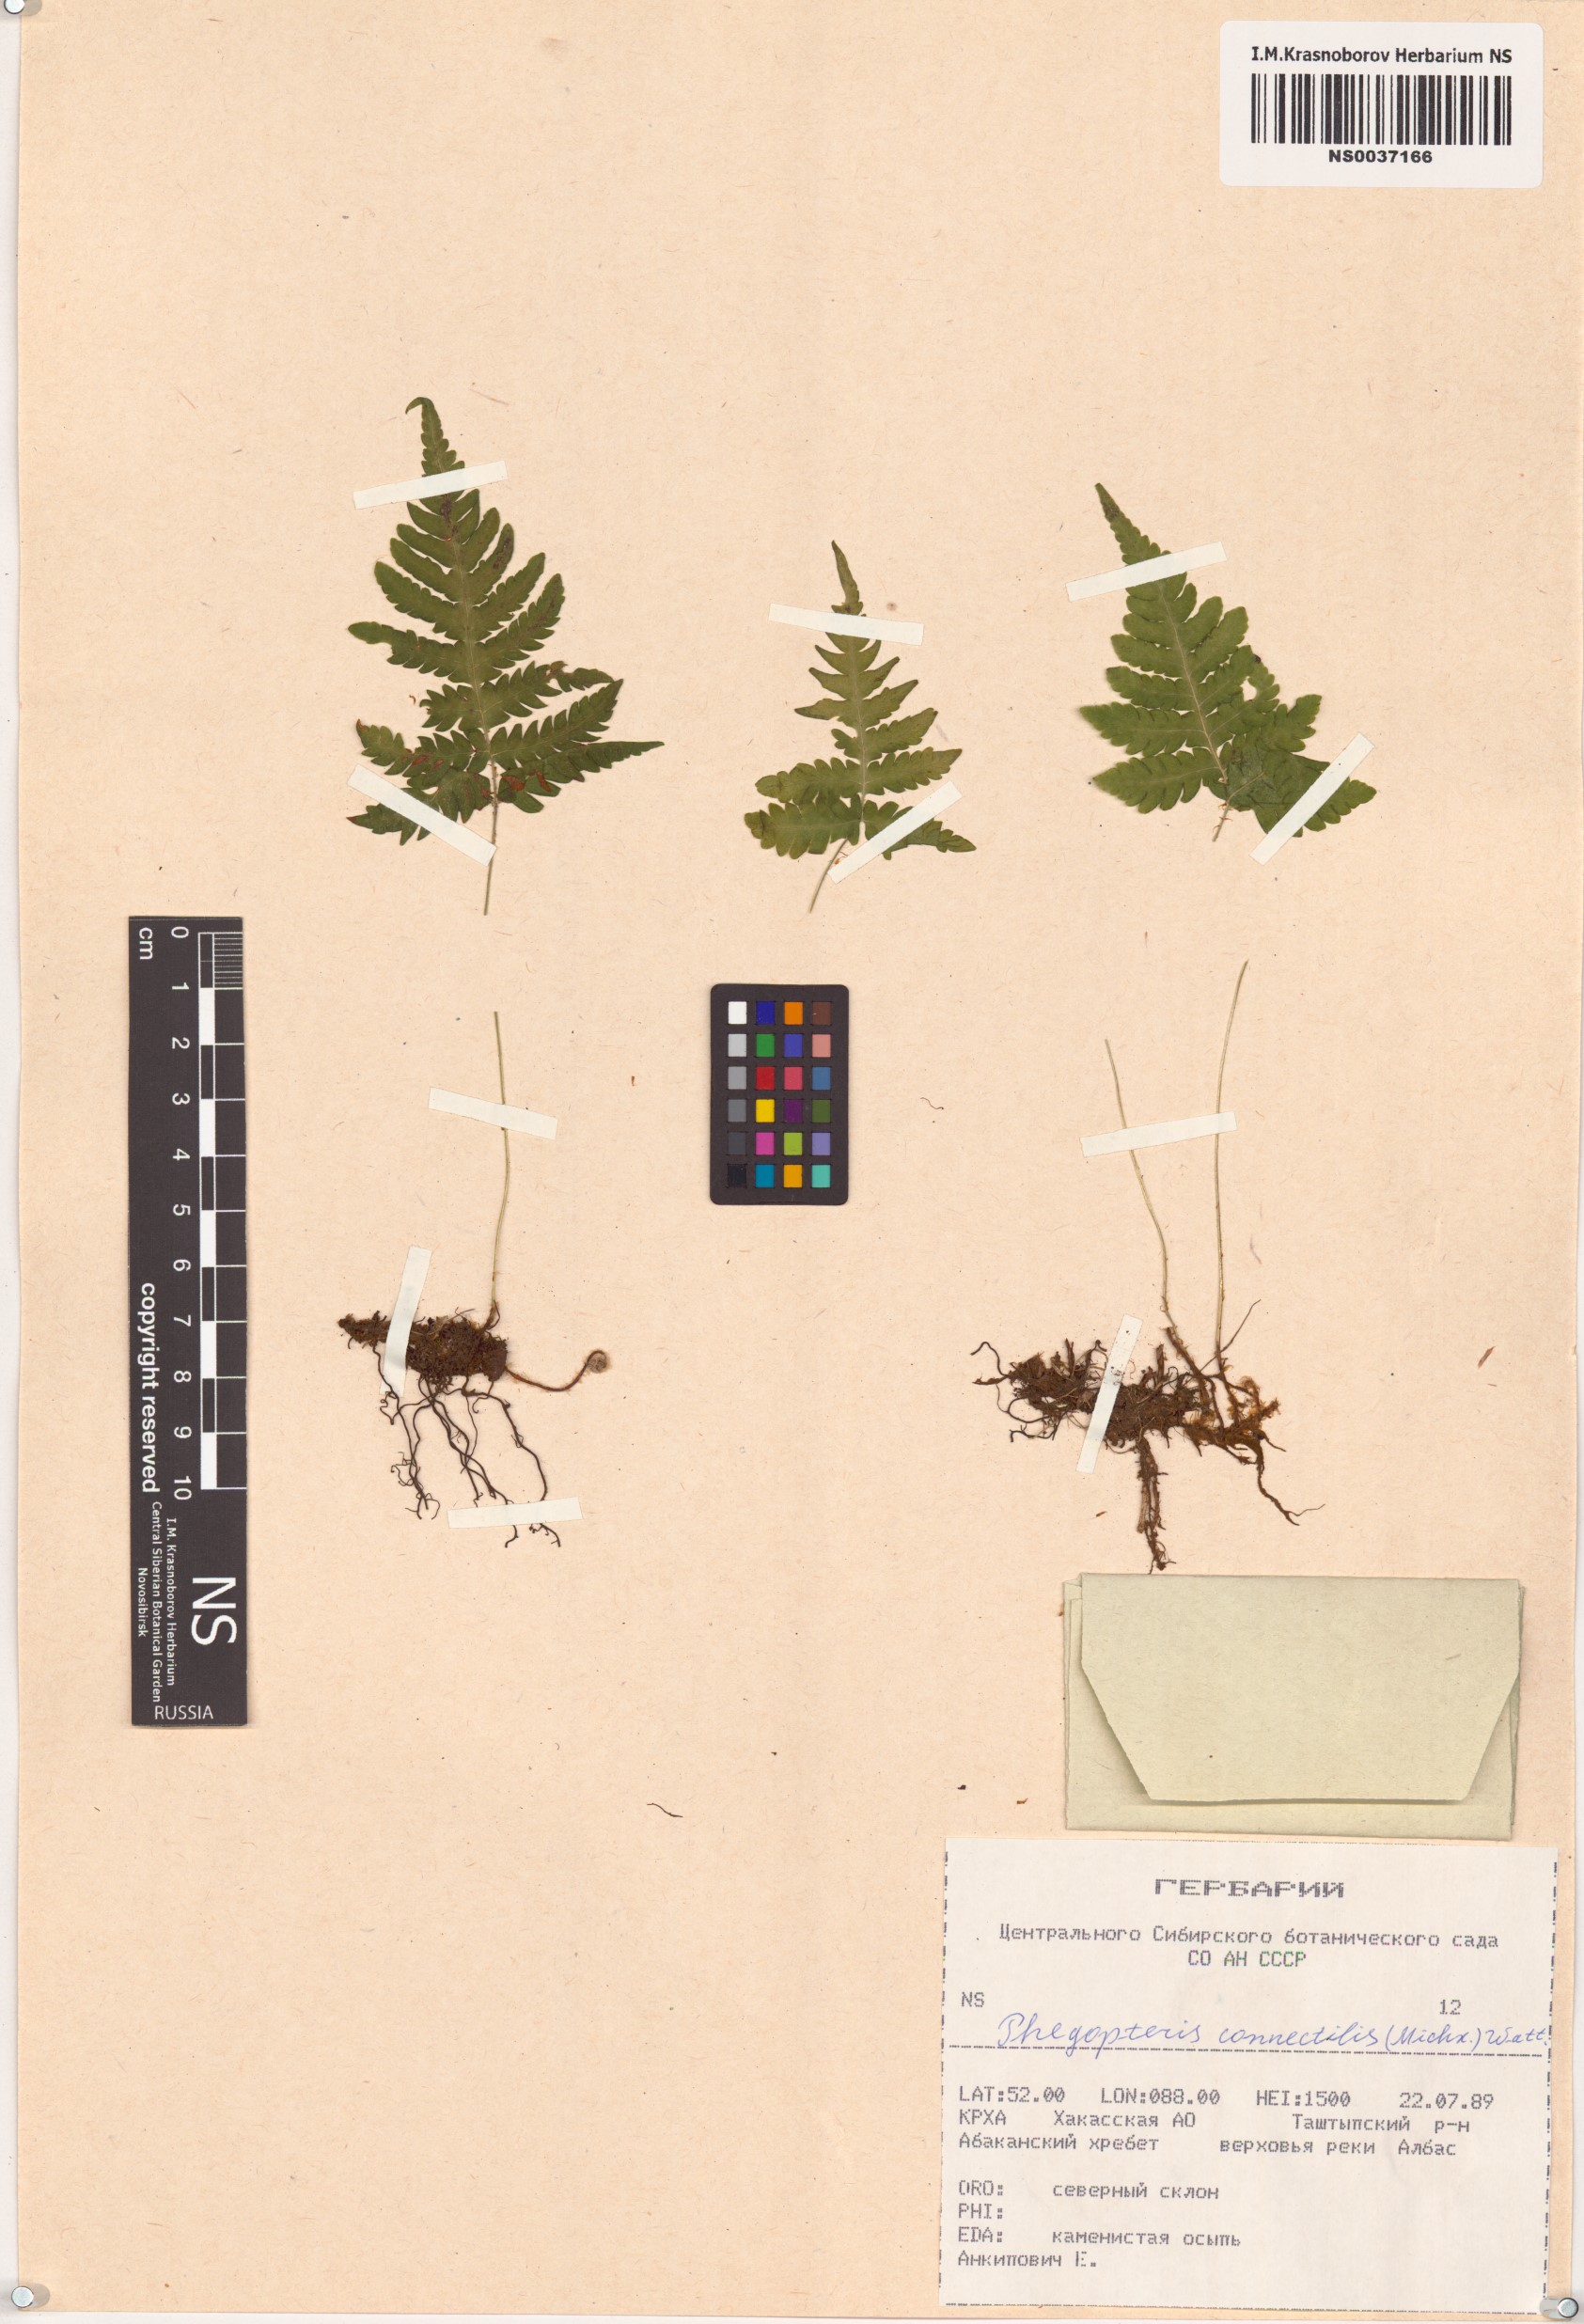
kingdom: Plantae
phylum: Tracheophyta
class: Polypodiopsida
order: Polypodiales
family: Thelypteridaceae
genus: Phegopteris
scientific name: Phegopteris connectilis
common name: Beech fern
